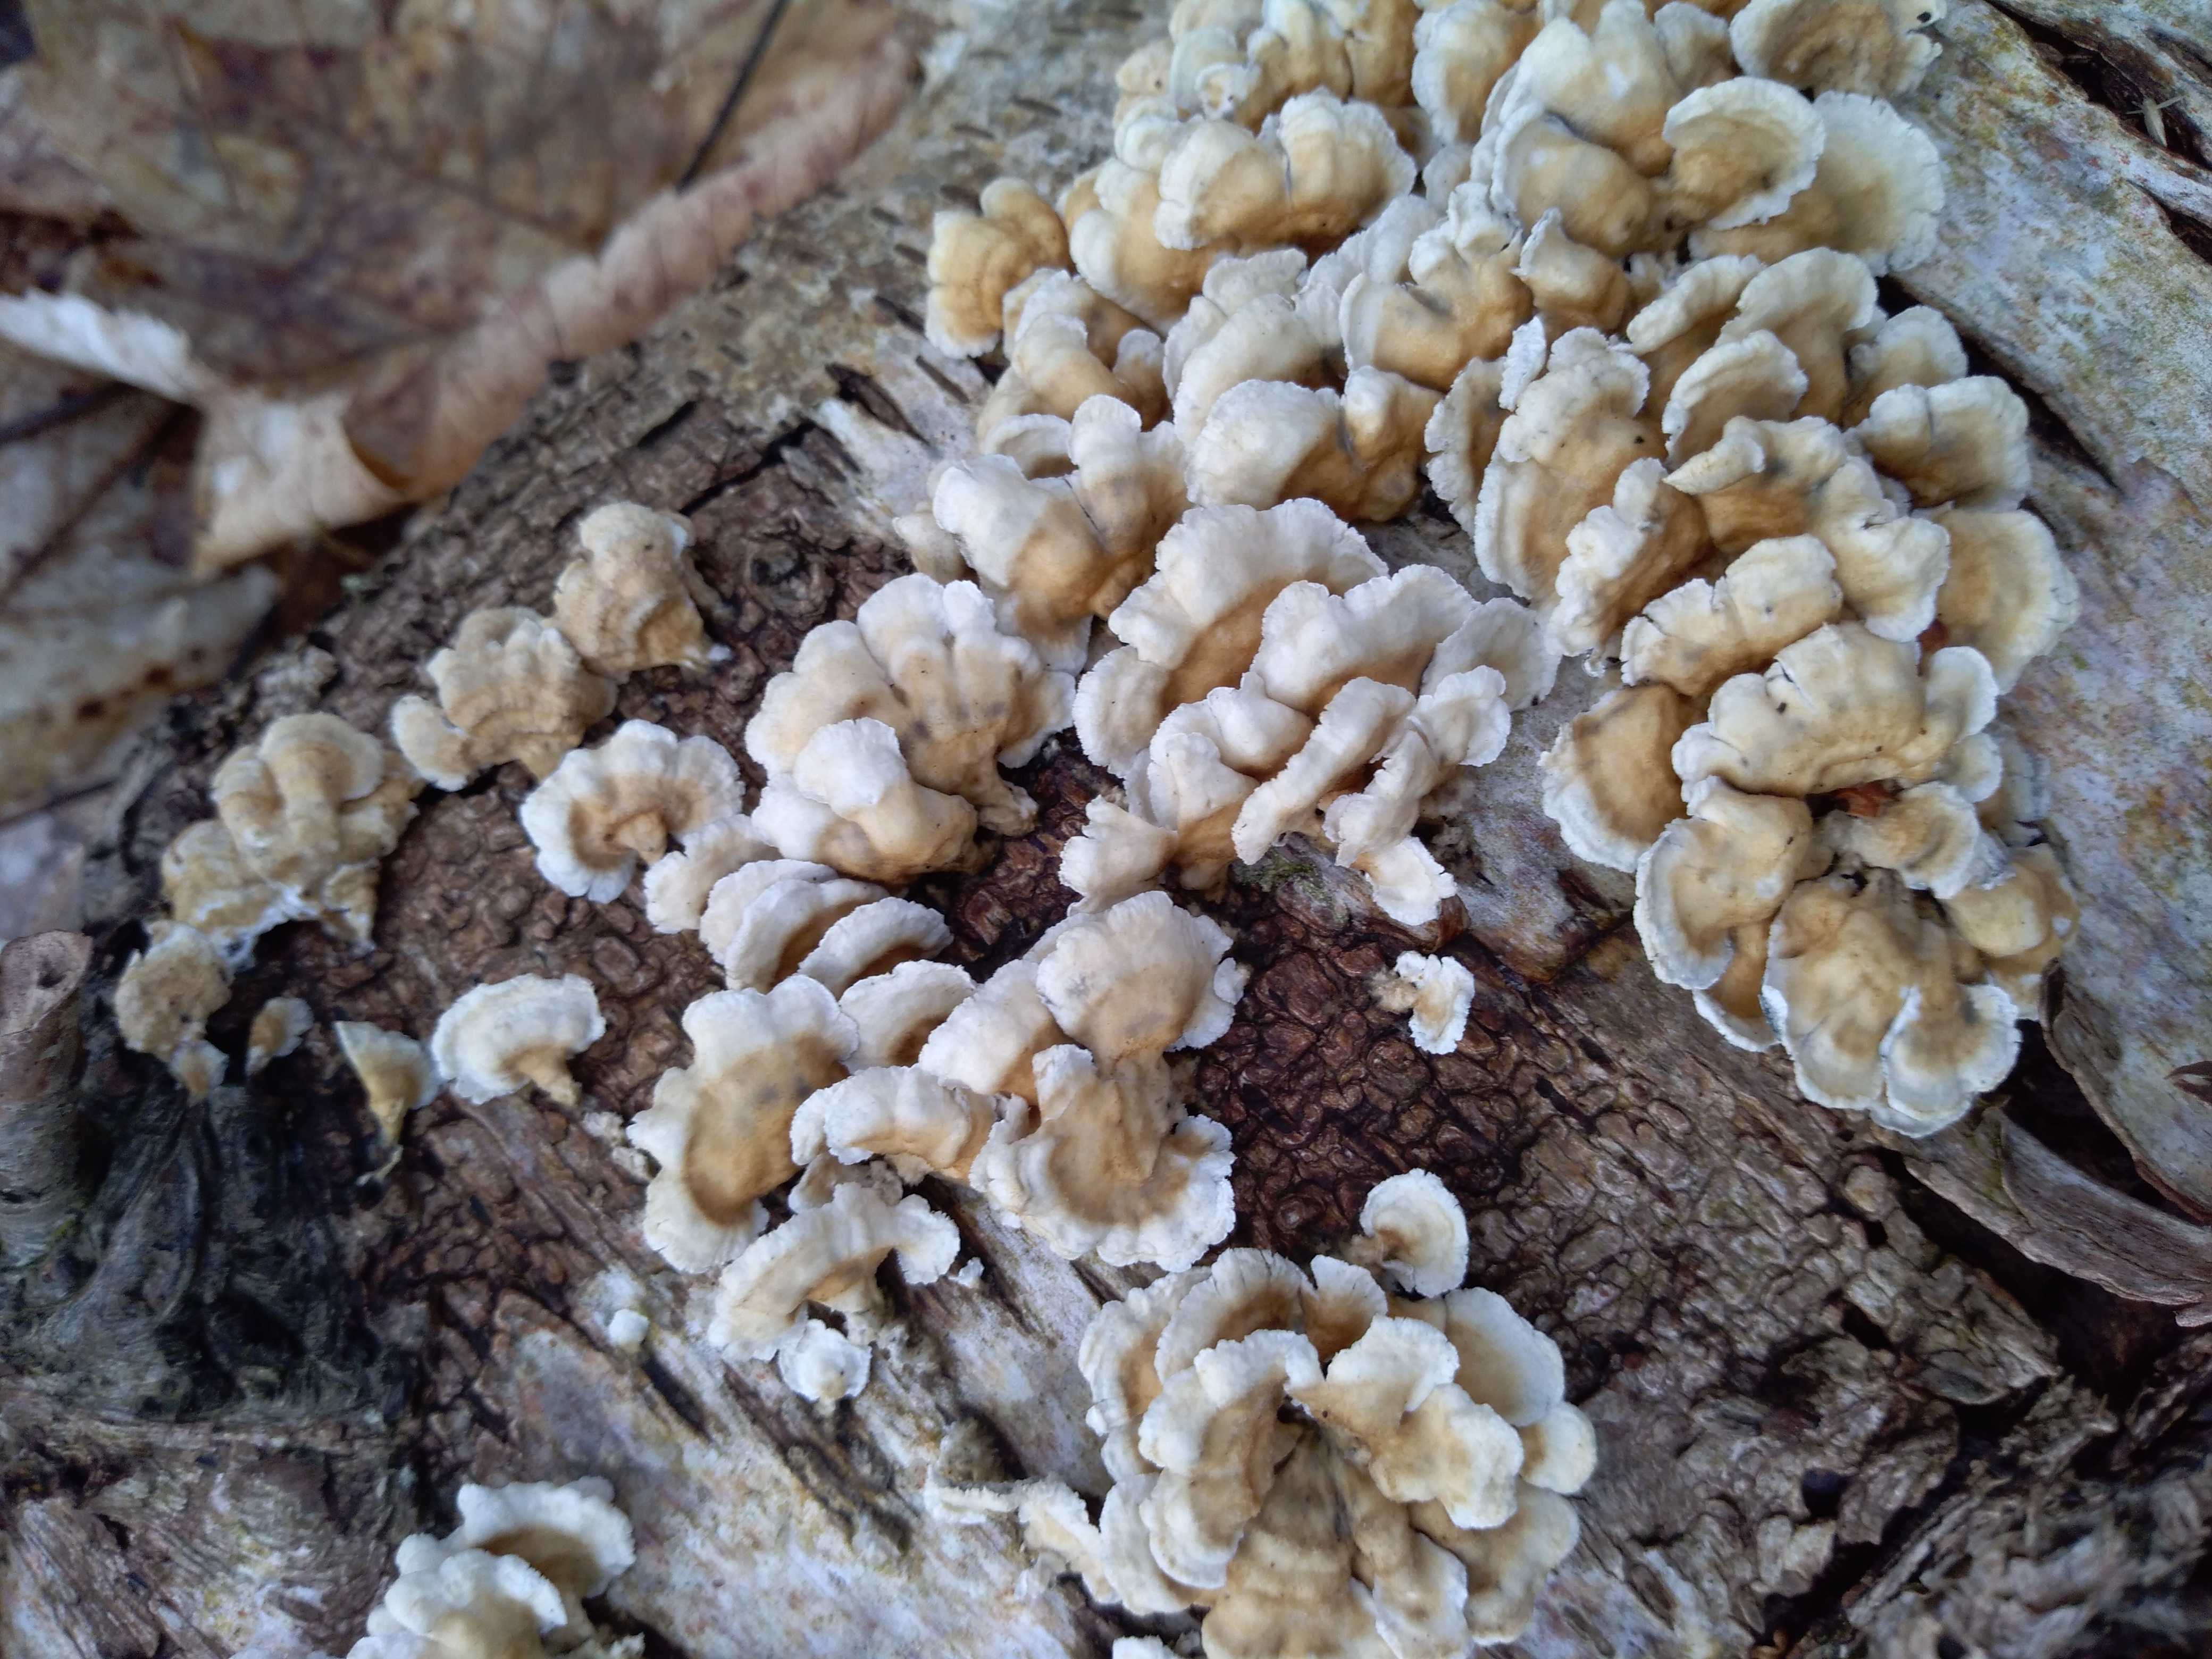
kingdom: Fungi
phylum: Basidiomycota
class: Agaricomycetes
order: Amylocorticiales
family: Amylocorticiaceae
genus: Plicaturopsis
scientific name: Plicaturopsis crispa
